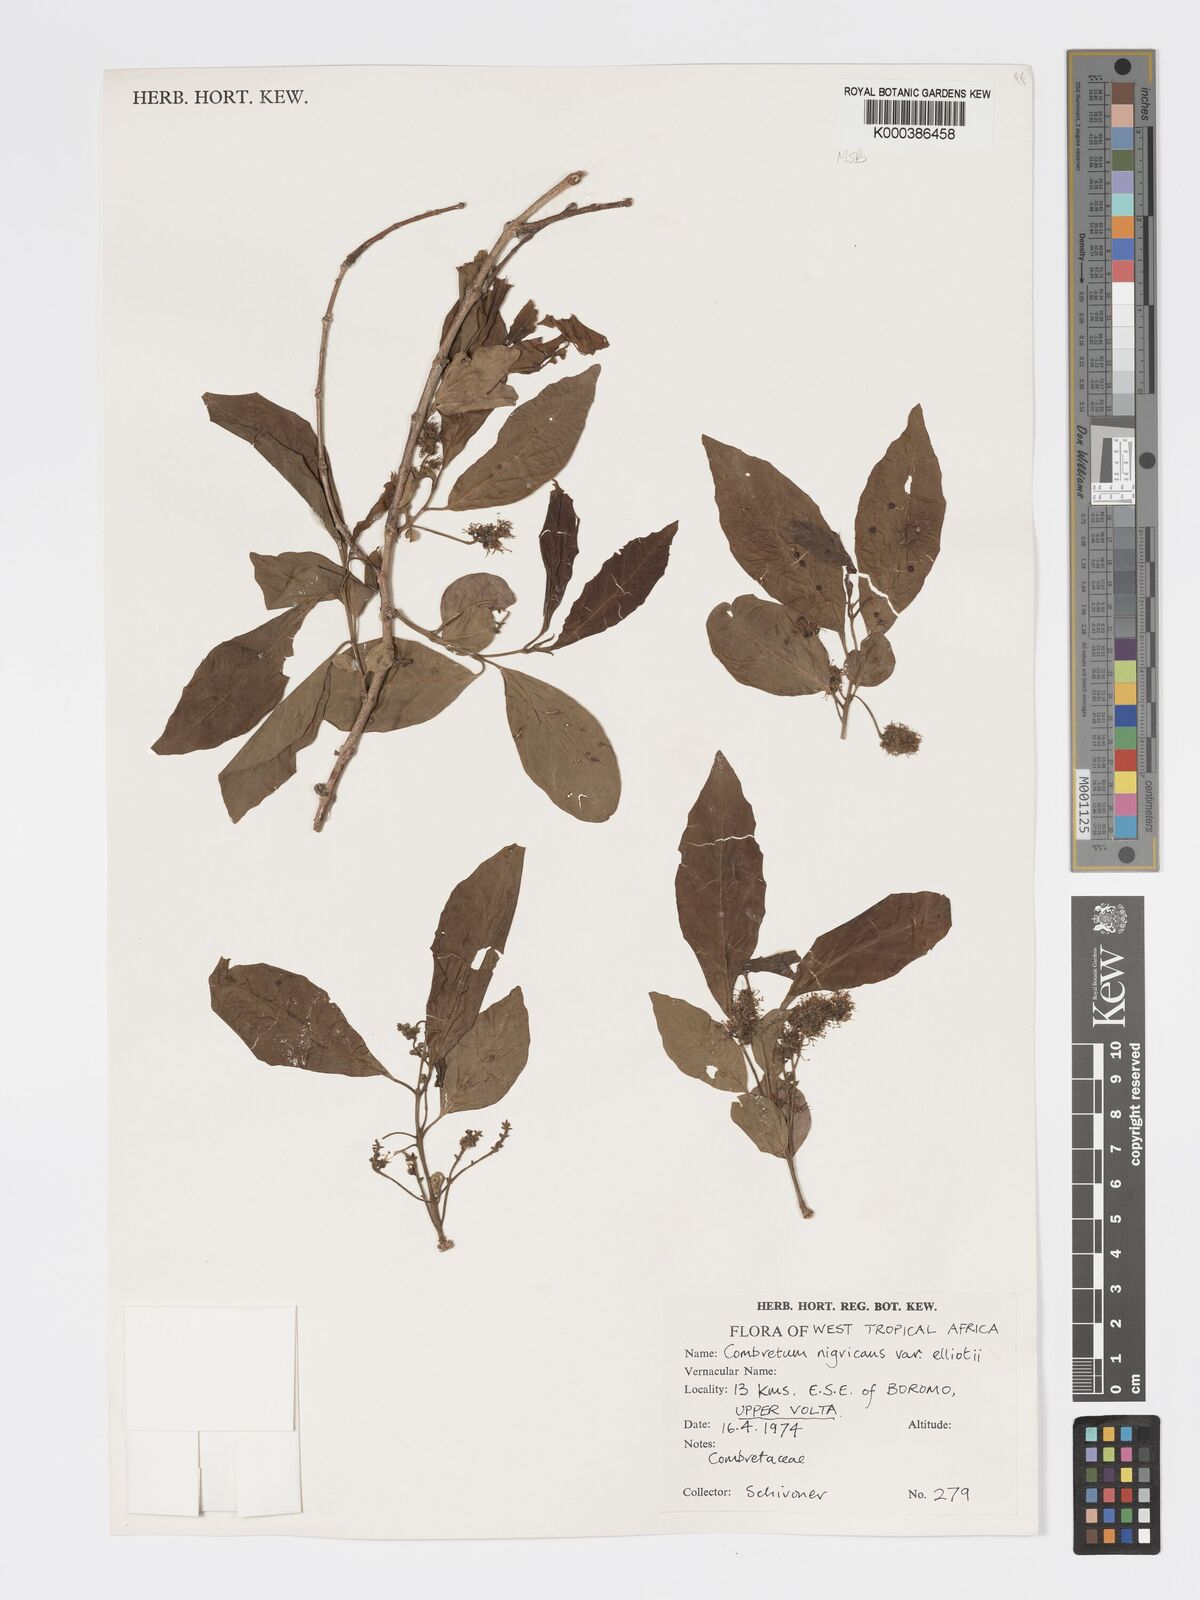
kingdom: Plantae
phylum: Tracheophyta
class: Magnoliopsida
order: Myrtales
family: Combretaceae
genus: Combretum
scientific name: Combretum nigricans
